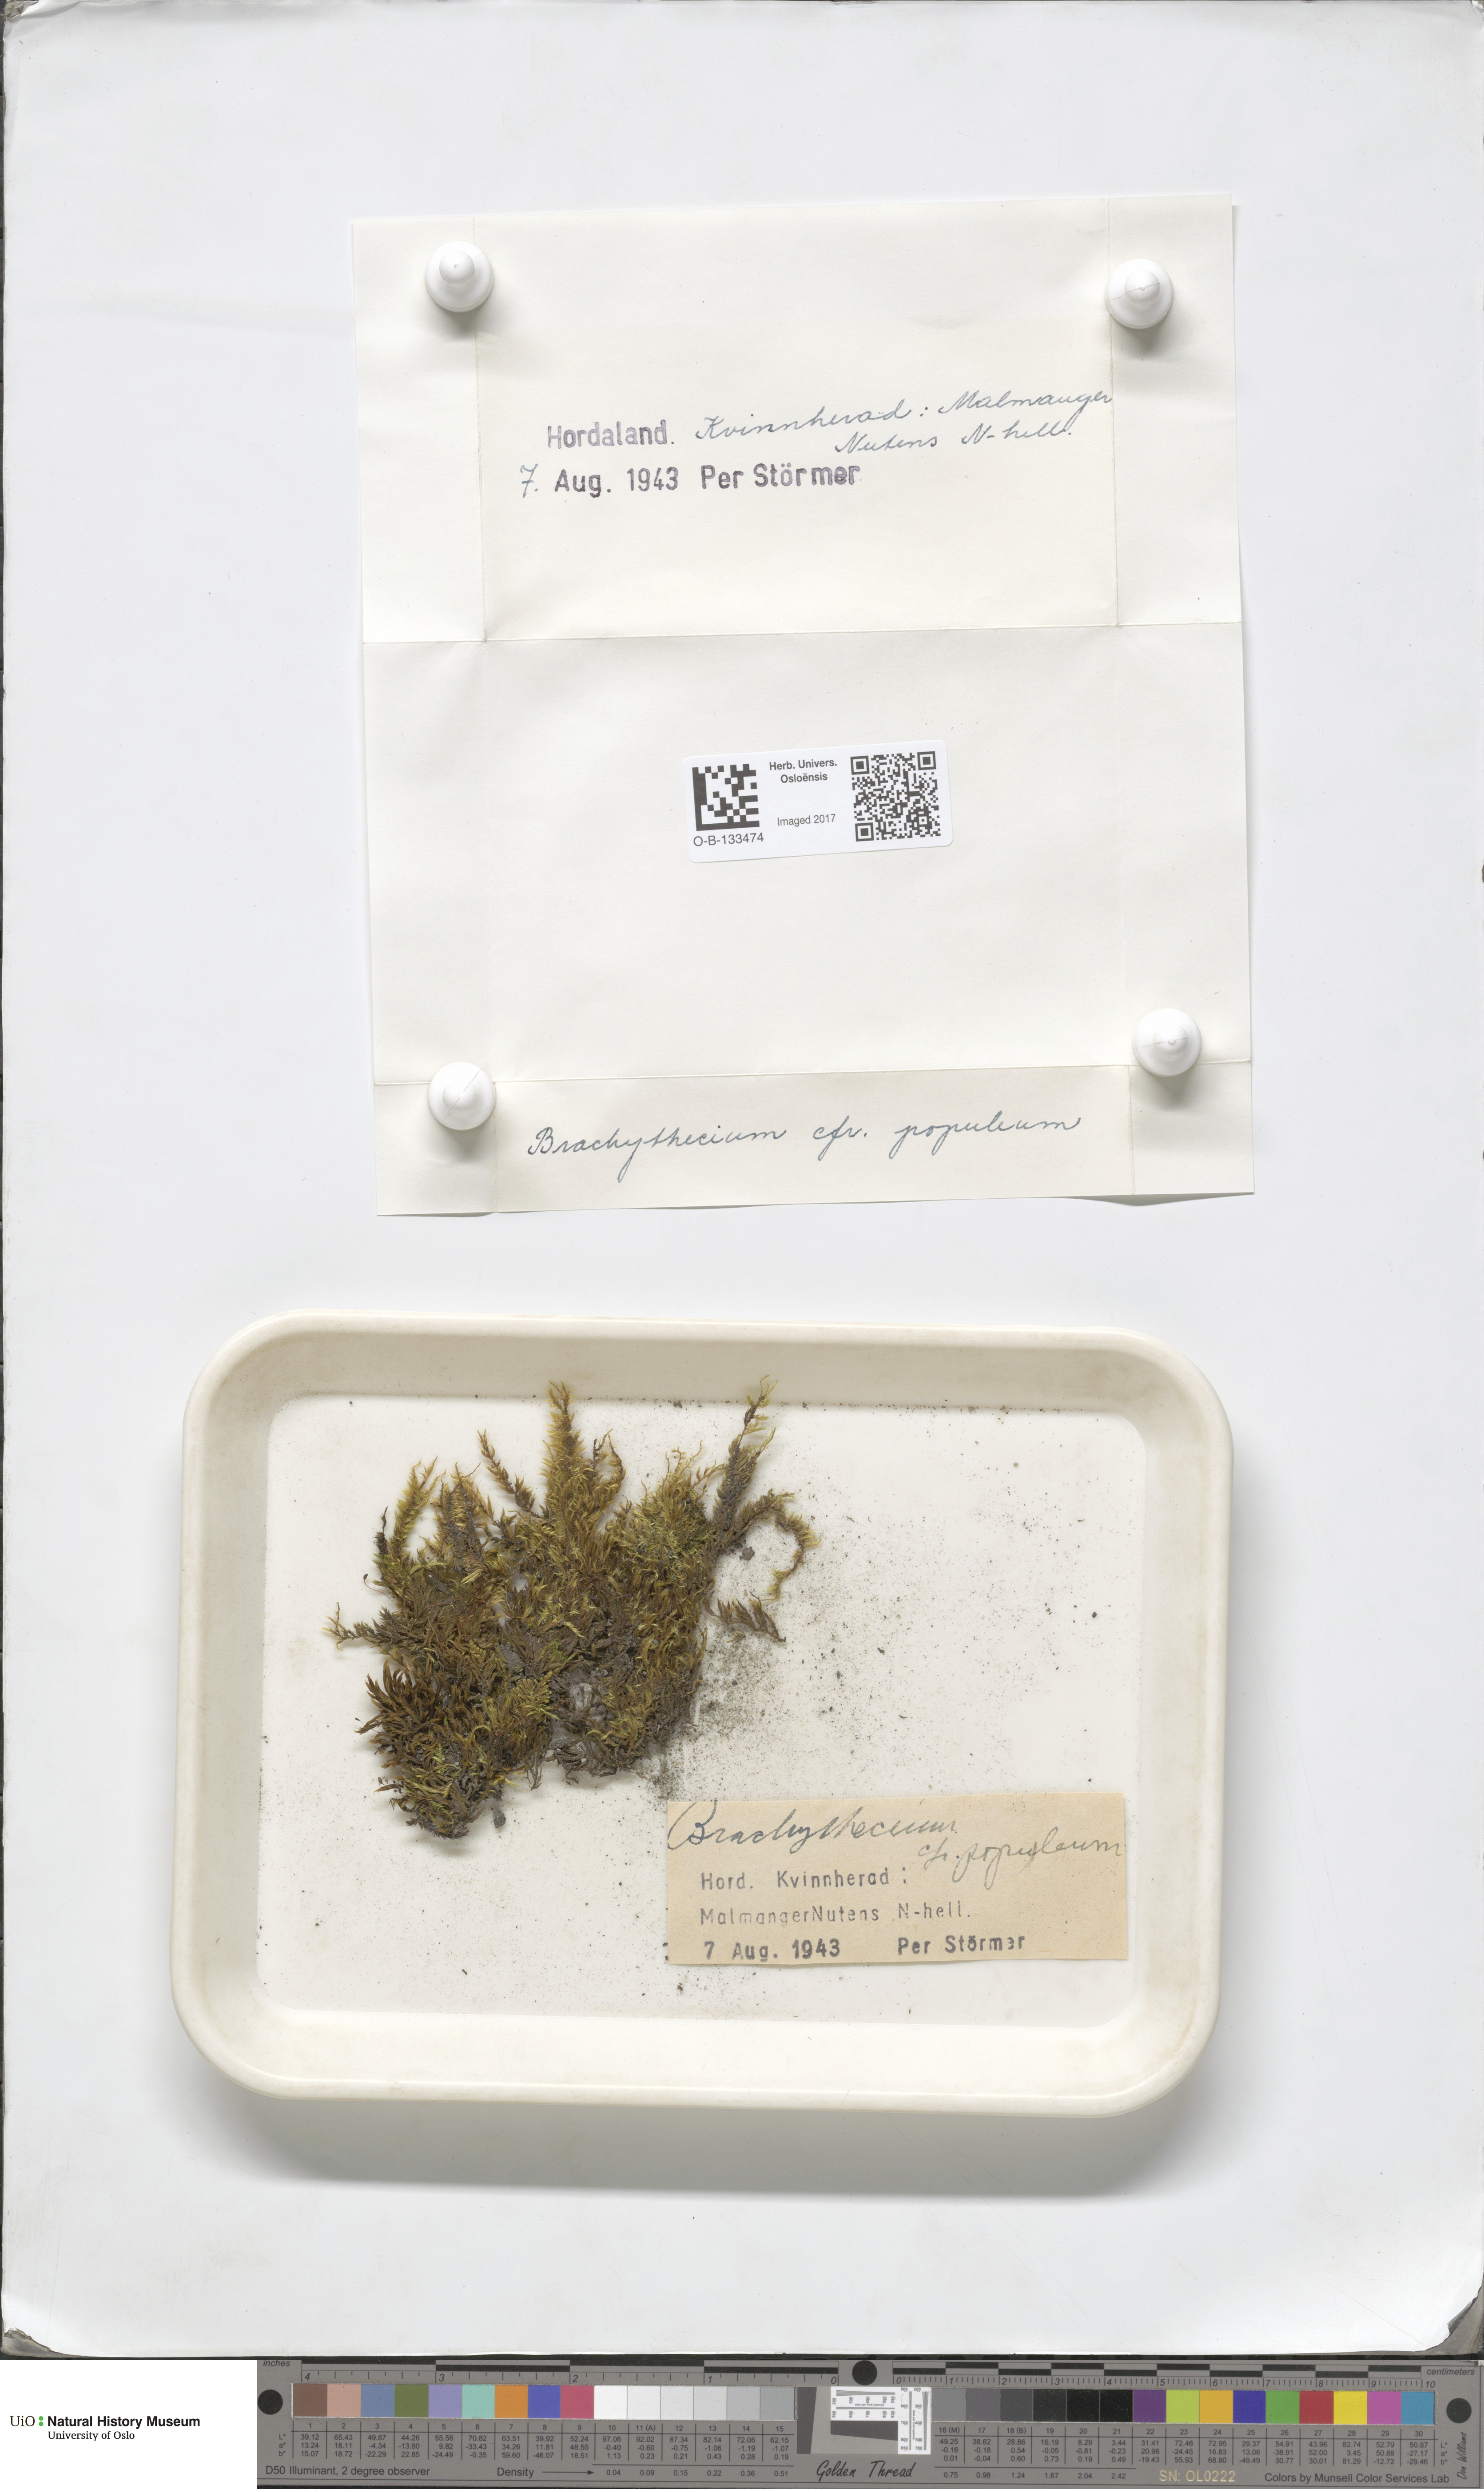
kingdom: Plantae
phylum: Bryophyta
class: Bryopsida
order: Hypnales
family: Brachytheciaceae
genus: Sciuro-hypnum
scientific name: Sciuro-hypnum plumosum
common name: Rusty feather-moss
